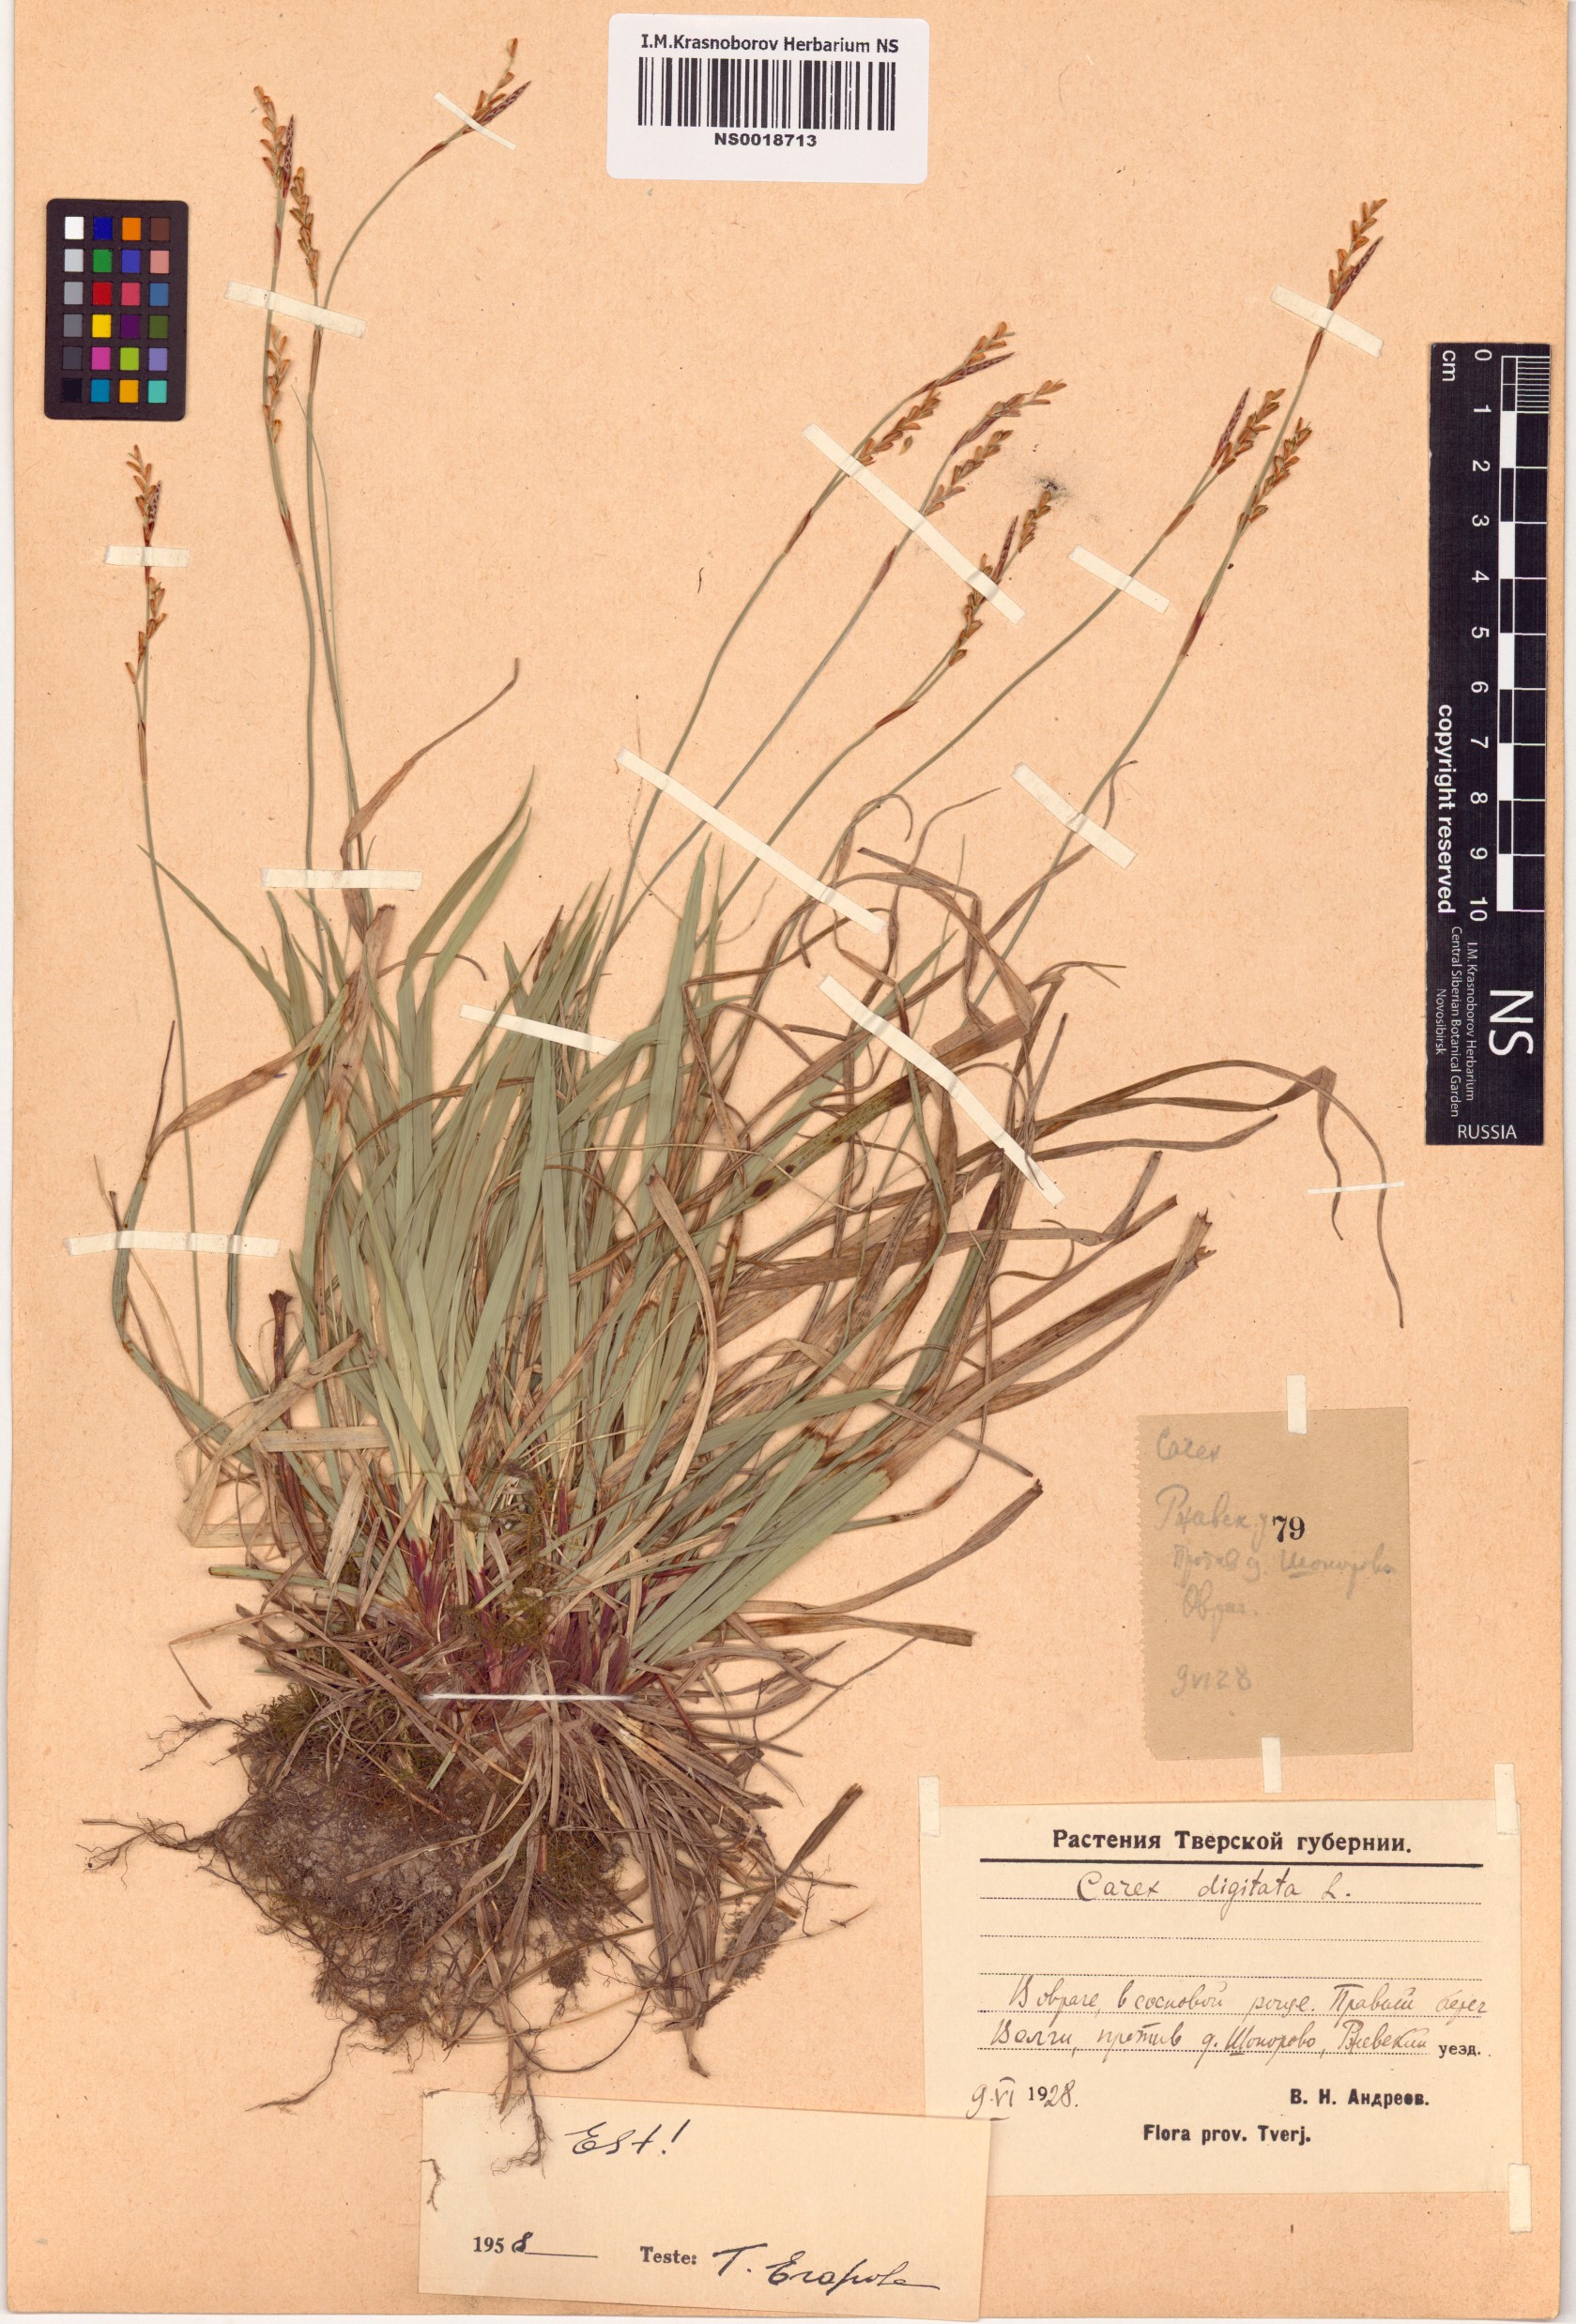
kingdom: Plantae
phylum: Tracheophyta
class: Liliopsida
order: Poales
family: Cyperaceae
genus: Carex
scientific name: Carex digitata
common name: Fingered sedge
